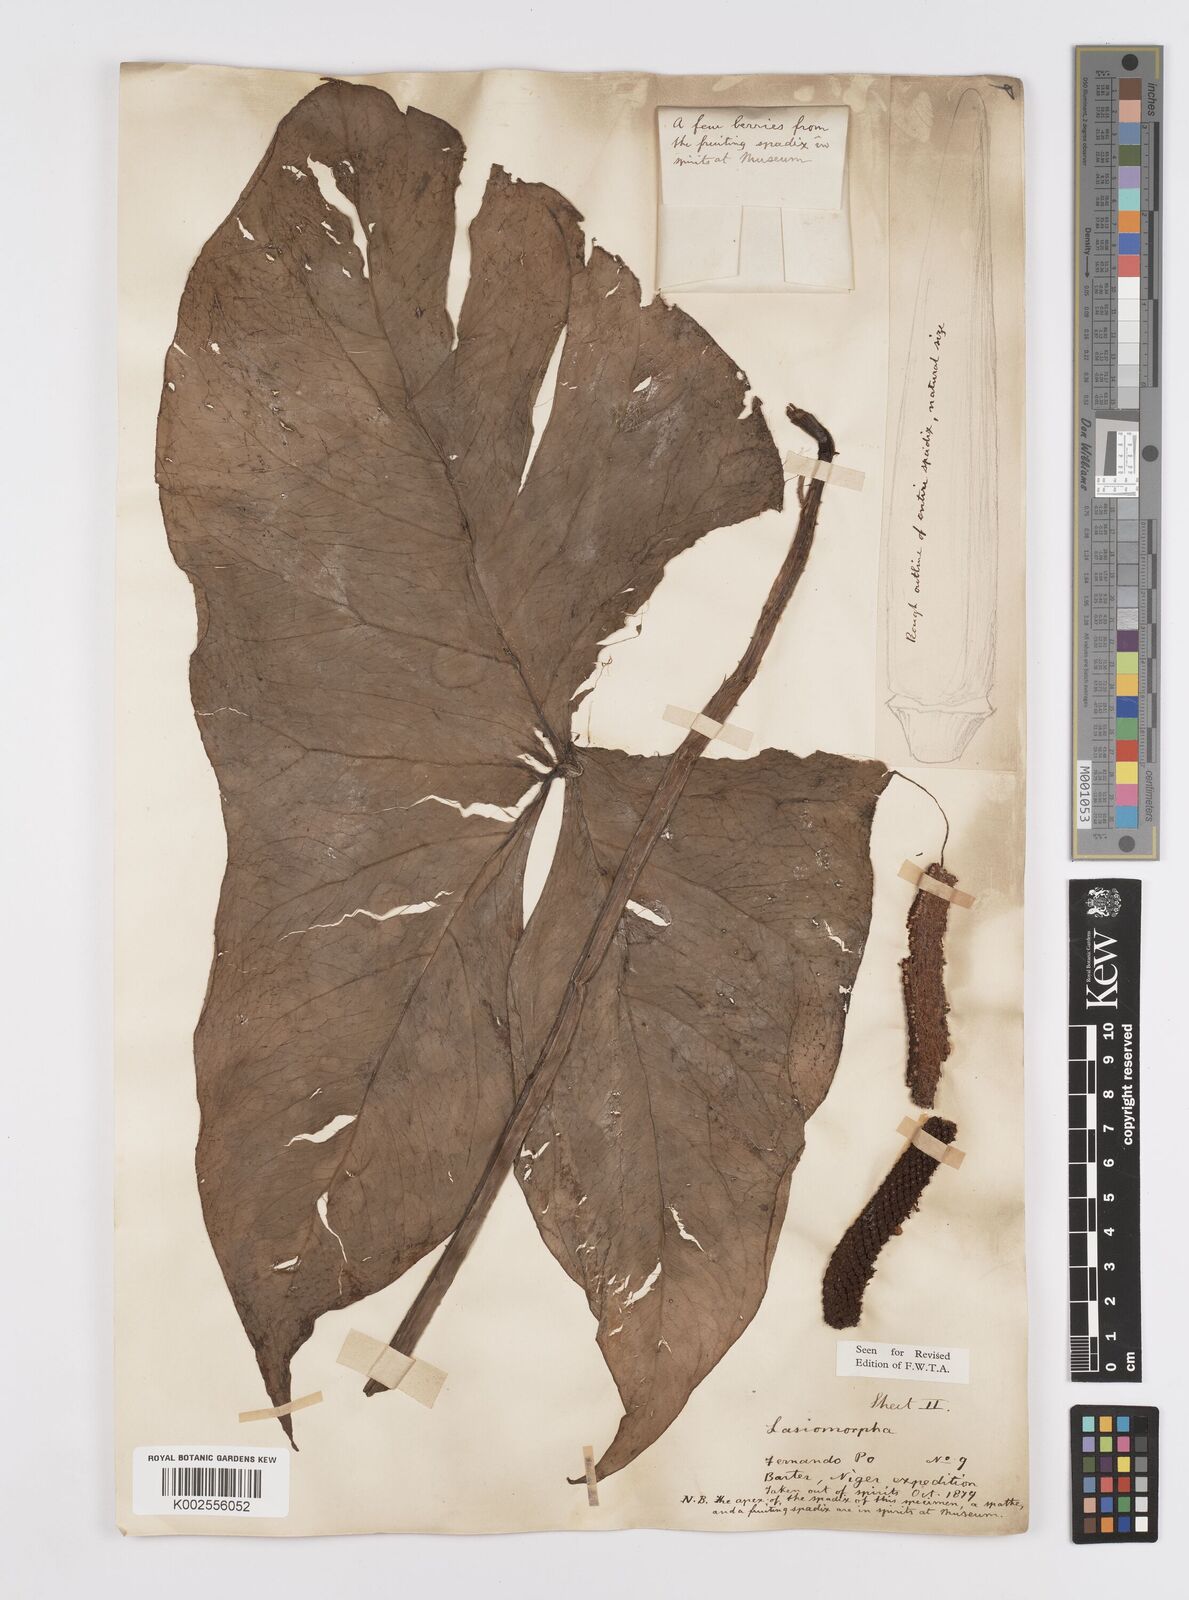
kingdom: Plantae
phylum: Tracheophyta
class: Liliopsida
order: Alismatales
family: Araceae
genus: Lasimorpha
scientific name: Lasimorpha senegalensis
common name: Swamp arum
